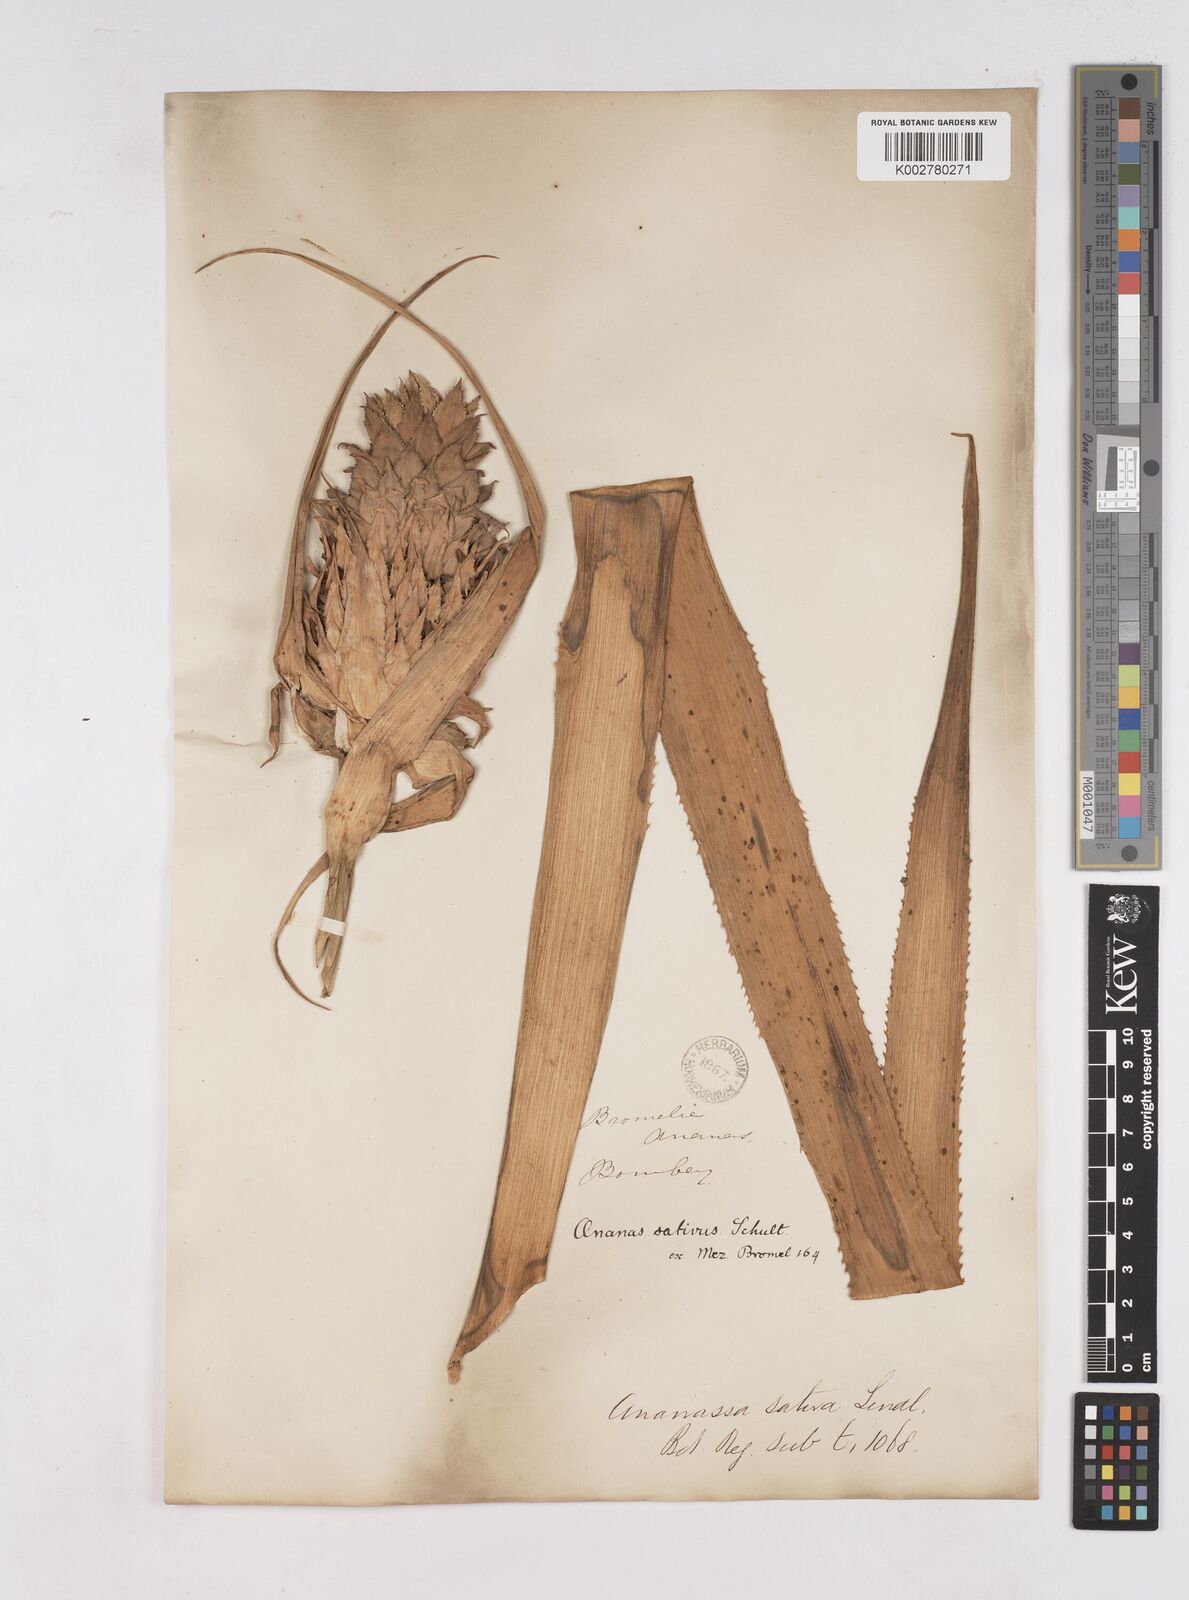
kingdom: Plantae
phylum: Tracheophyta
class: Liliopsida
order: Poales
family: Bromeliaceae
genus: Ananas
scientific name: Ananas comosus
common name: Pineapple
